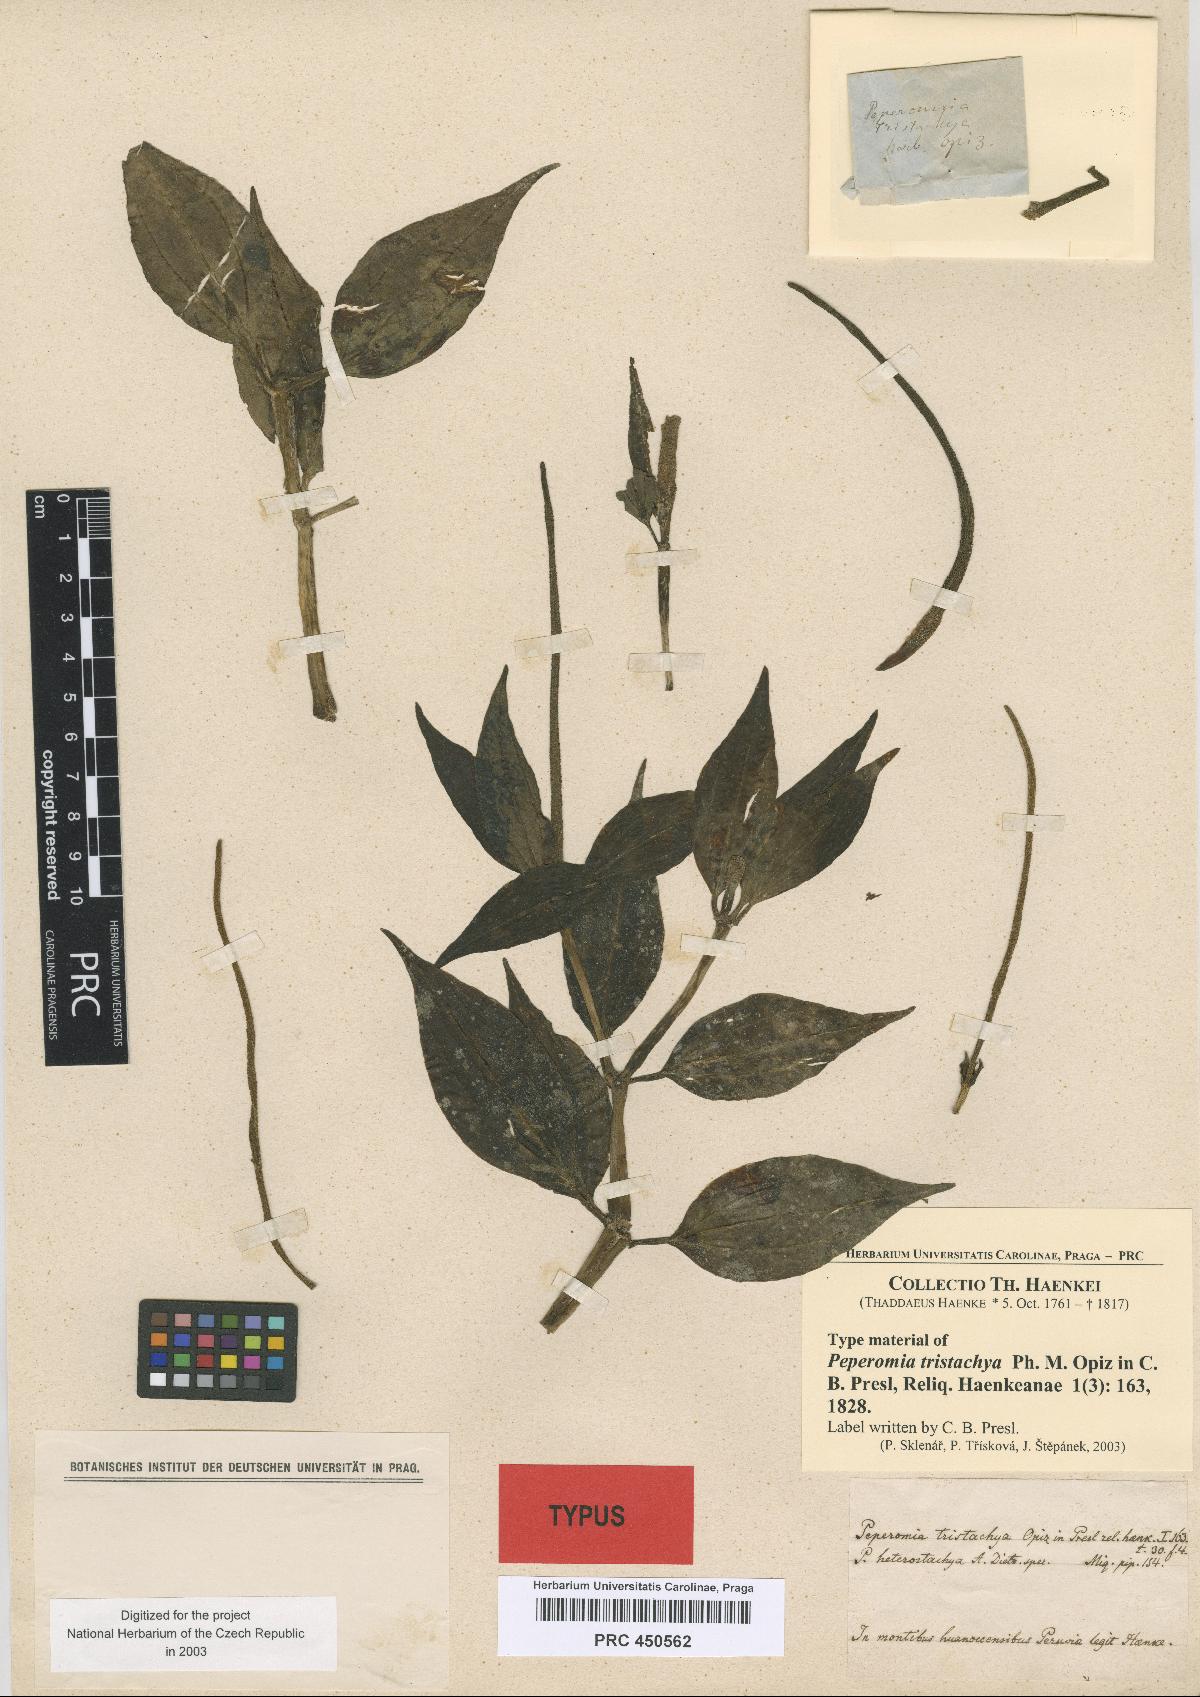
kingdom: Plantae
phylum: Tracheophyta
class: Magnoliopsida
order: Piperales
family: Piperaceae
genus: Peperomia
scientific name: Peperomia heterostachya
